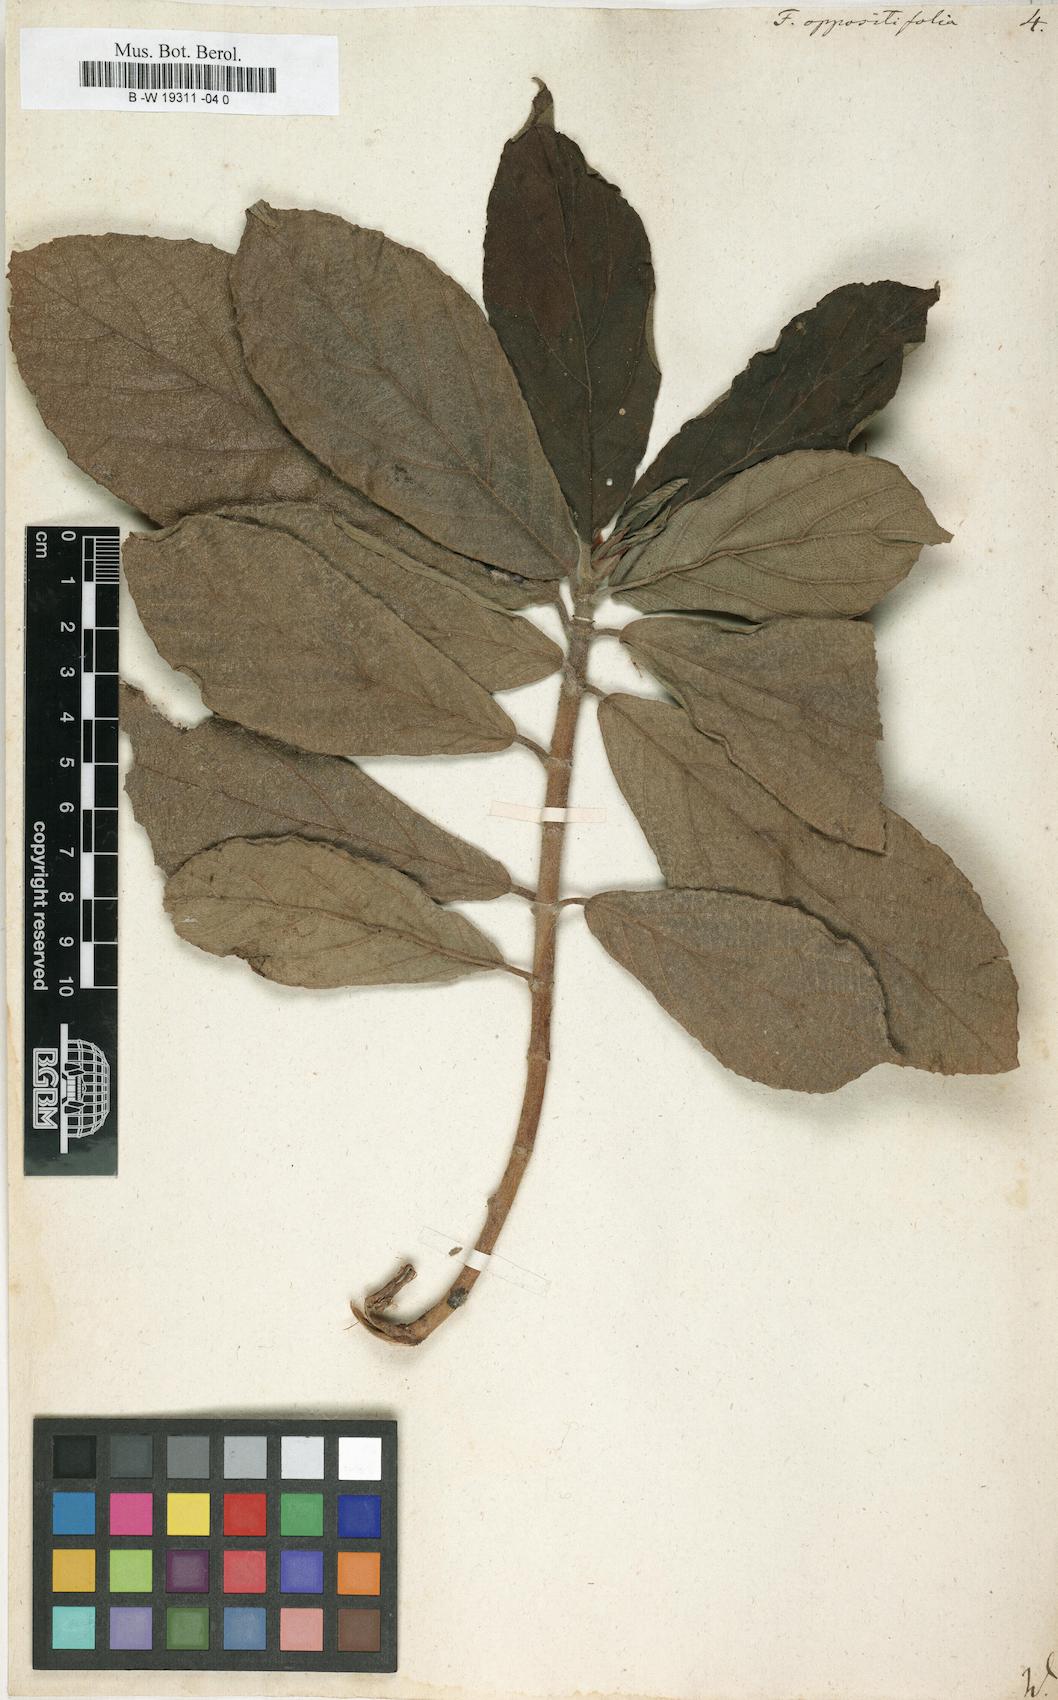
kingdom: Plantae
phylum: Tracheophyta
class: Magnoliopsida
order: Rosales
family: Moraceae
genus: Ficus
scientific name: Ficus hispida
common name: Hairy fig
